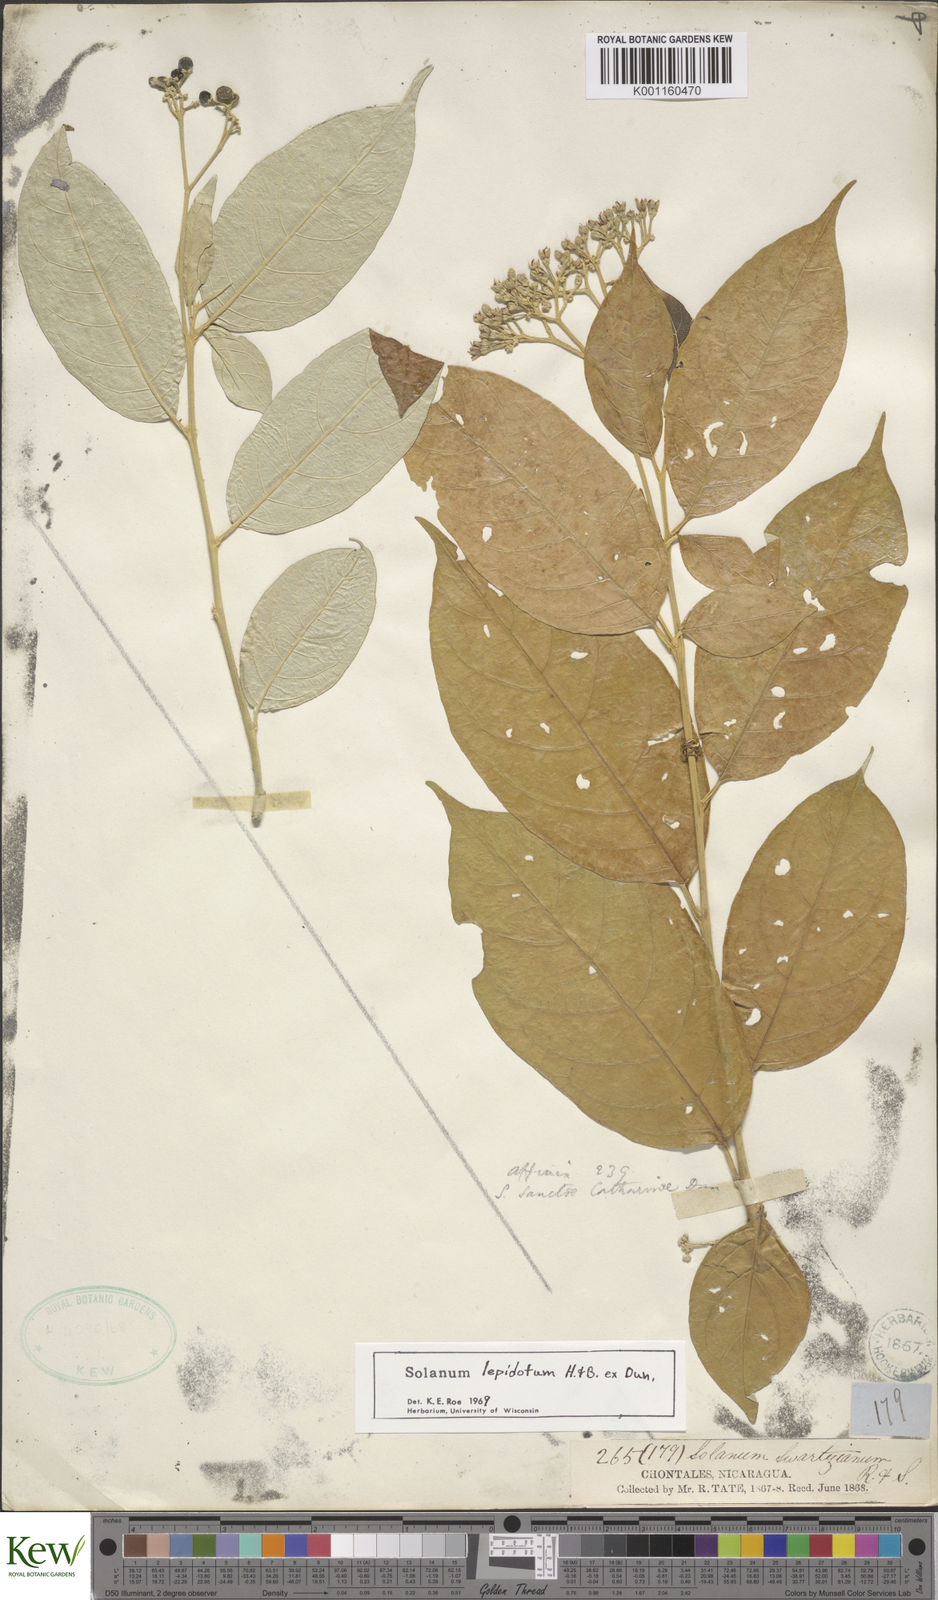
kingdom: Plantae
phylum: Tracheophyta
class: Magnoliopsida
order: Solanales
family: Solanaceae
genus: Solanum
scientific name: Solanum lepidotum
